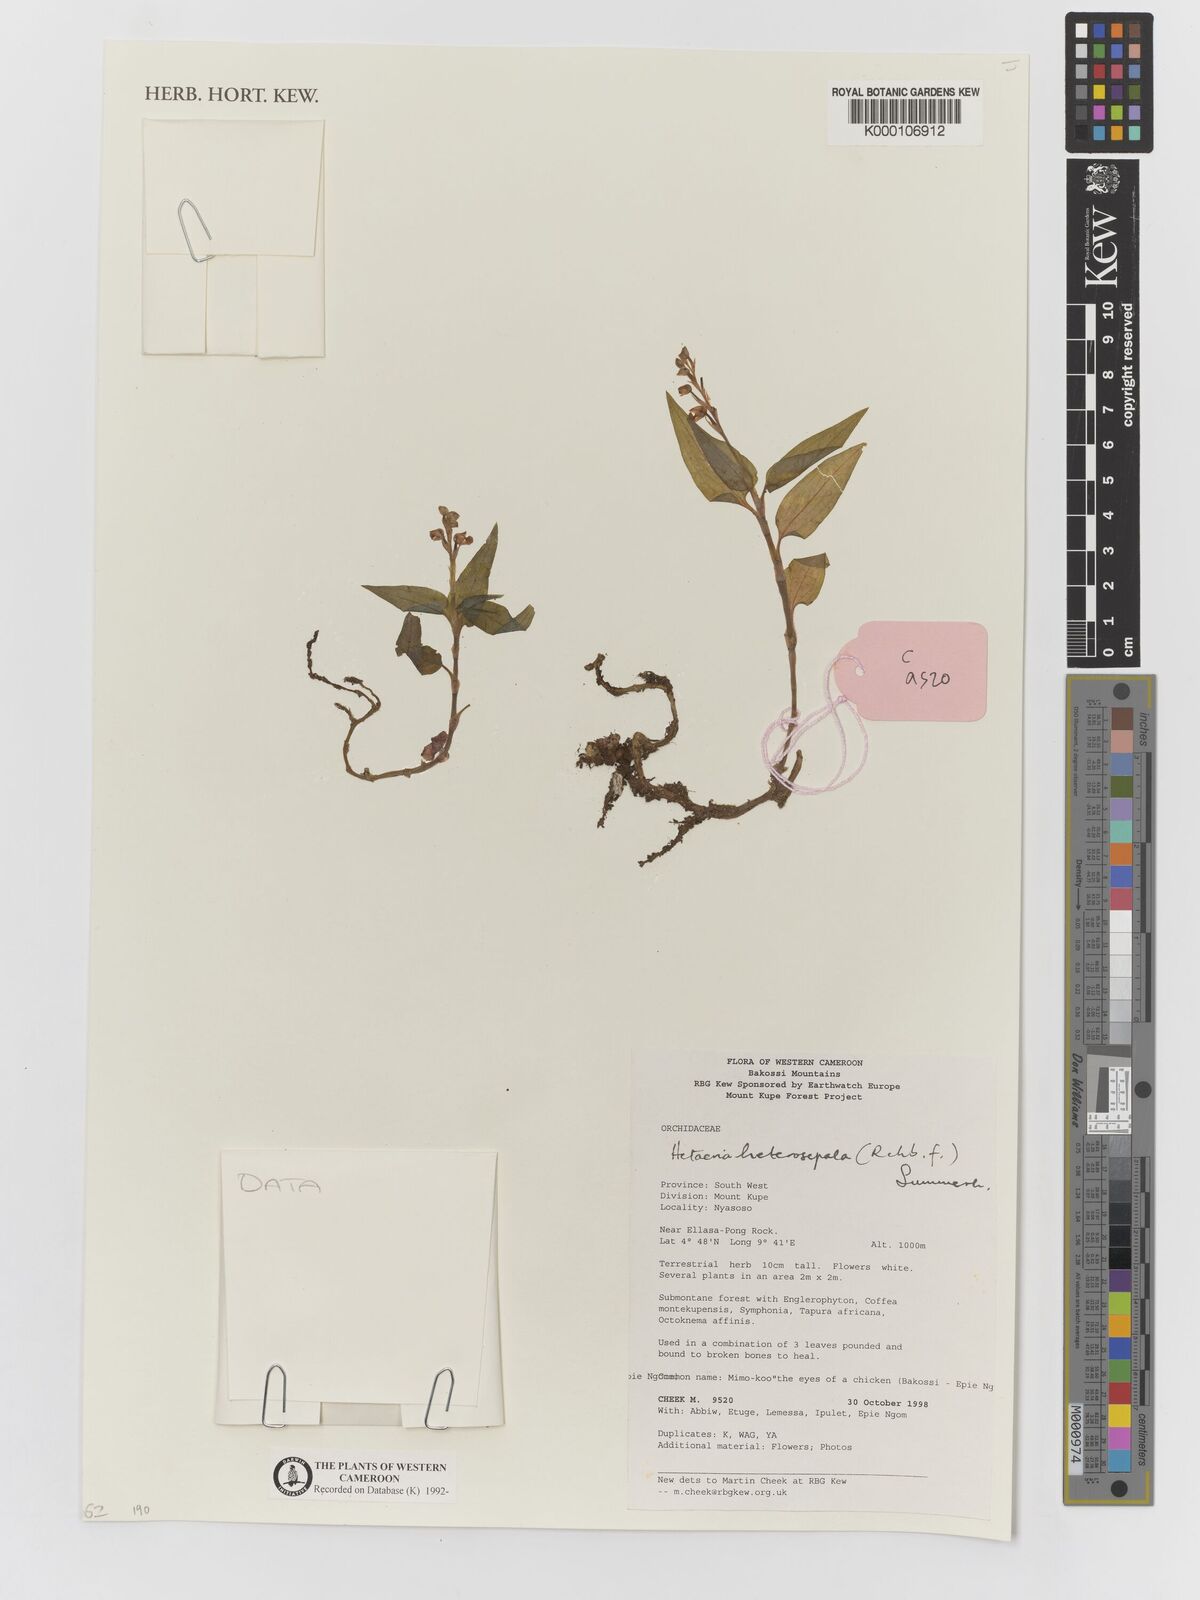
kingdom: Plantae
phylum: Tracheophyta
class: Liliopsida
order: Asparagales
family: Orchidaceae
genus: Hetaeria
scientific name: Hetaeria heterosepala
